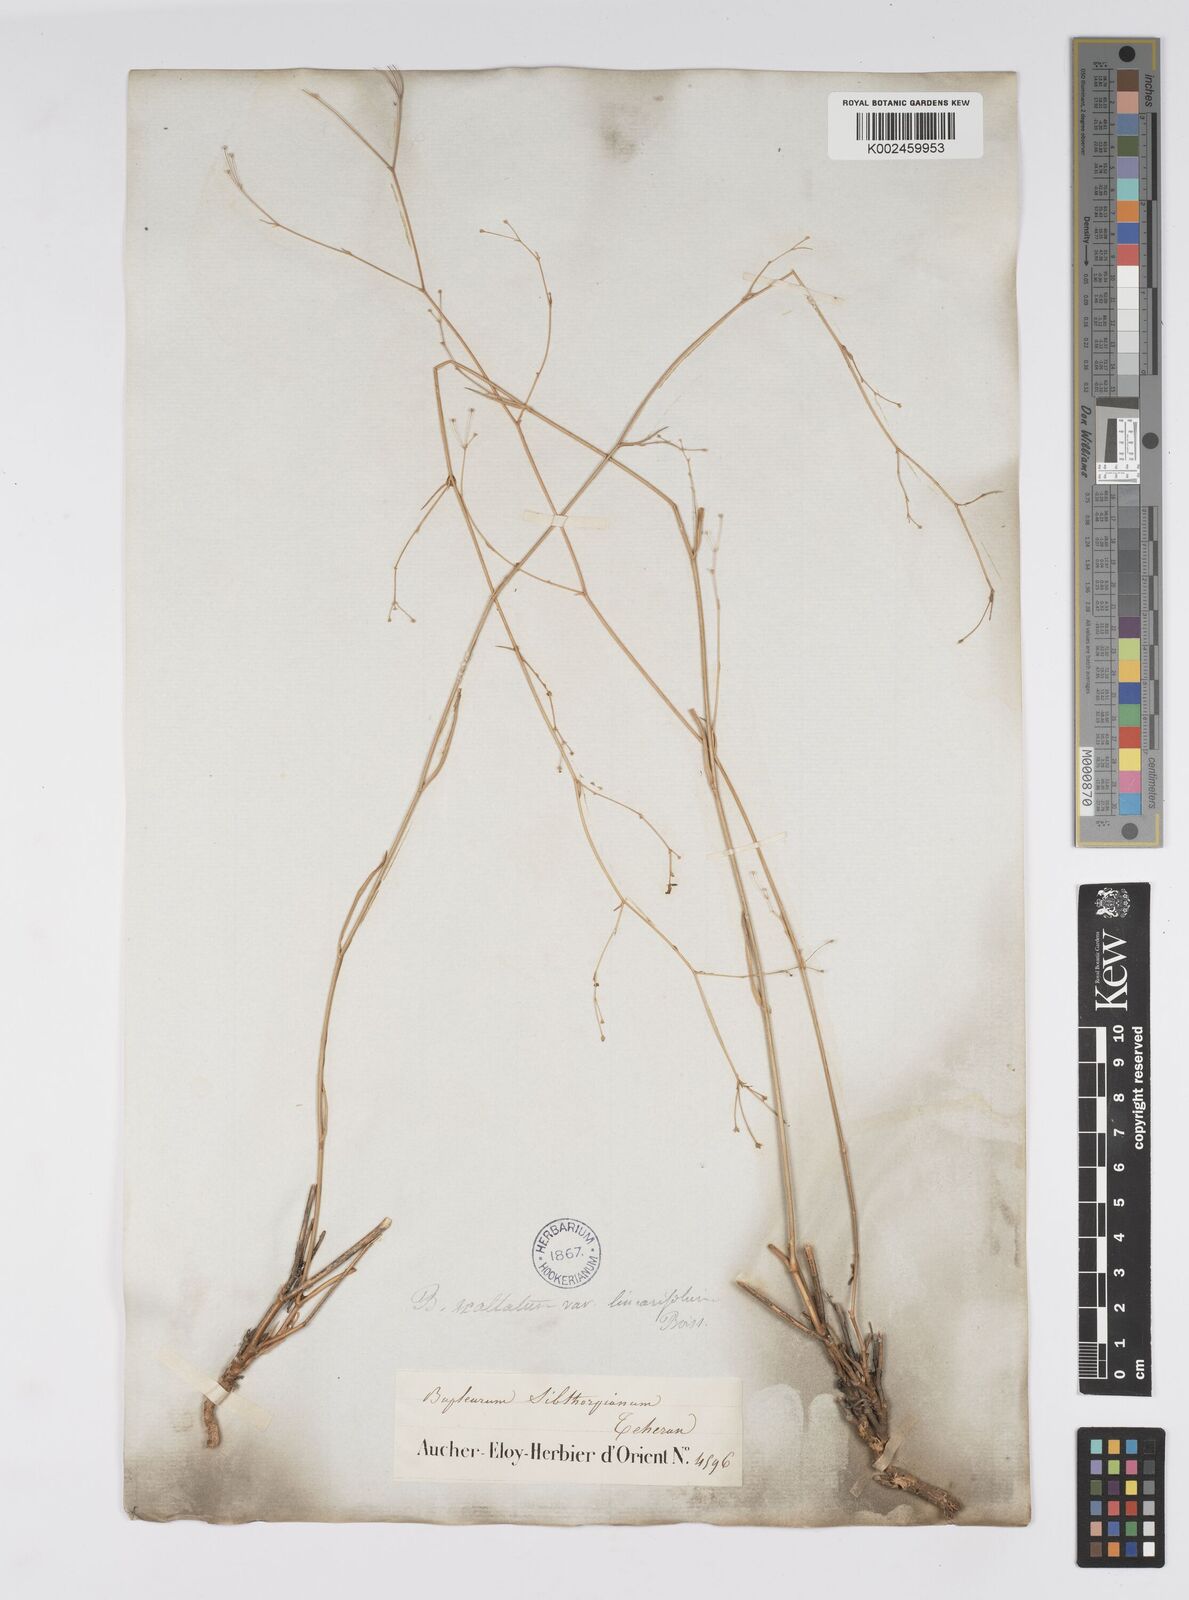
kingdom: Plantae
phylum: Tracheophyta
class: Magnoliopsida
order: Apiales
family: Apiaceae
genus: Bupleurum
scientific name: Bupleurum falcatum
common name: Sickle-leaved hare's-ear
